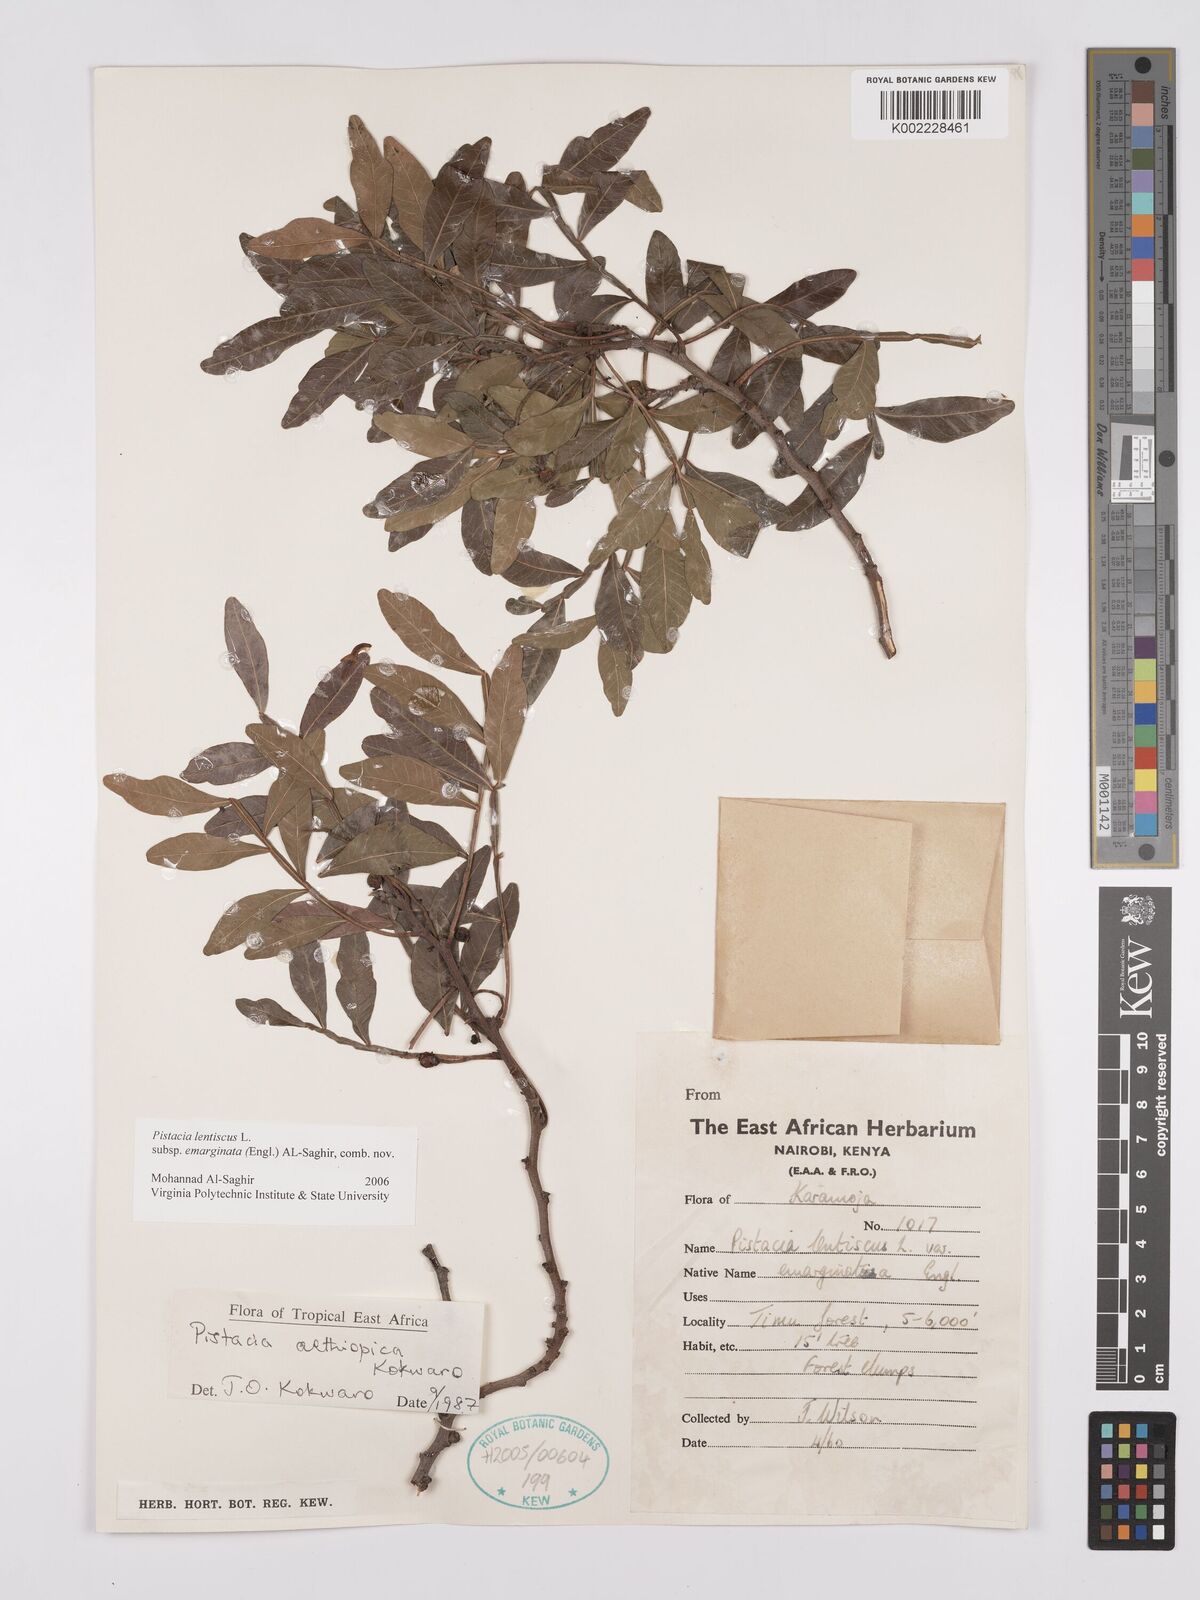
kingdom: Plantae
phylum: Tracheophyta
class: Magnoliopsida
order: Sapindales
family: Anacardiaceae
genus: Pistacia
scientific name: Pistacia lentiscus
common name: Lentisk
